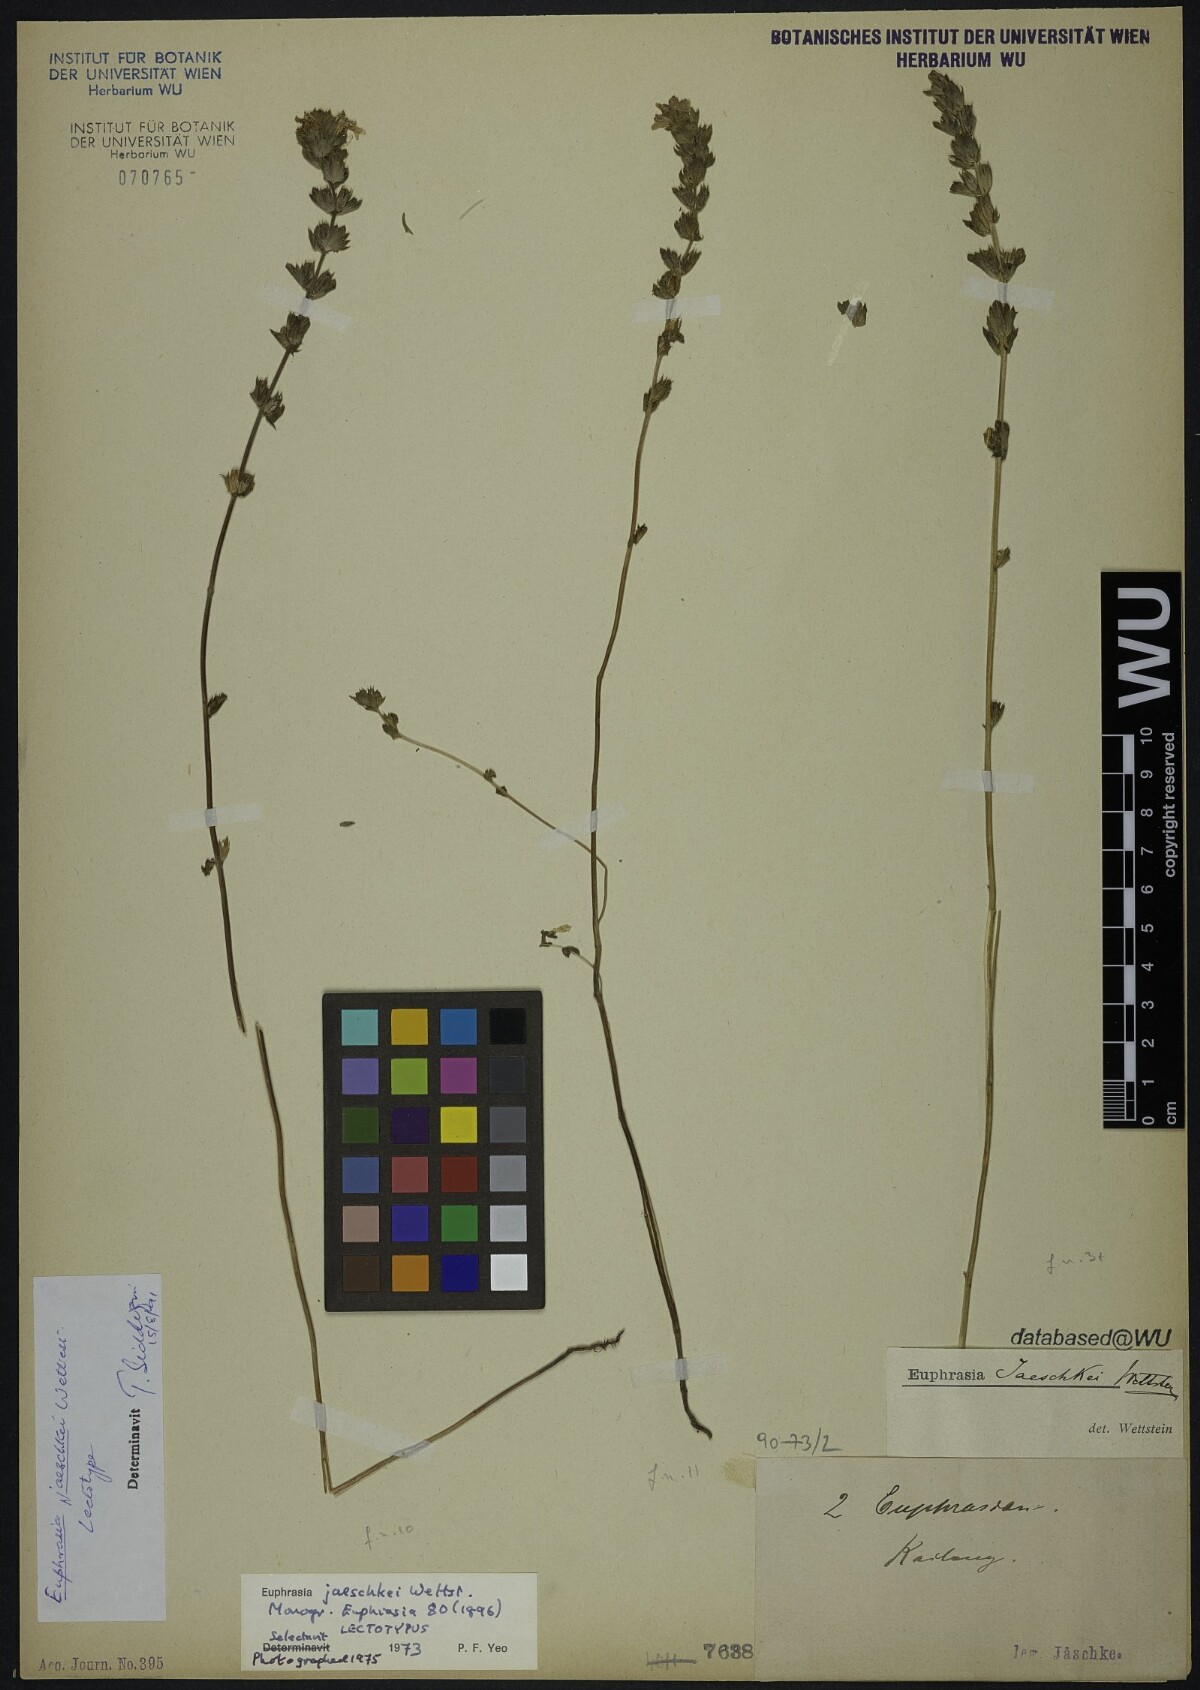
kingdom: Plantae
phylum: Tracheophyta
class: Magnoliopsida
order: Lamiales
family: Orobanchaceae
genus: Euphrasia
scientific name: Euphrasia jaeschkei
